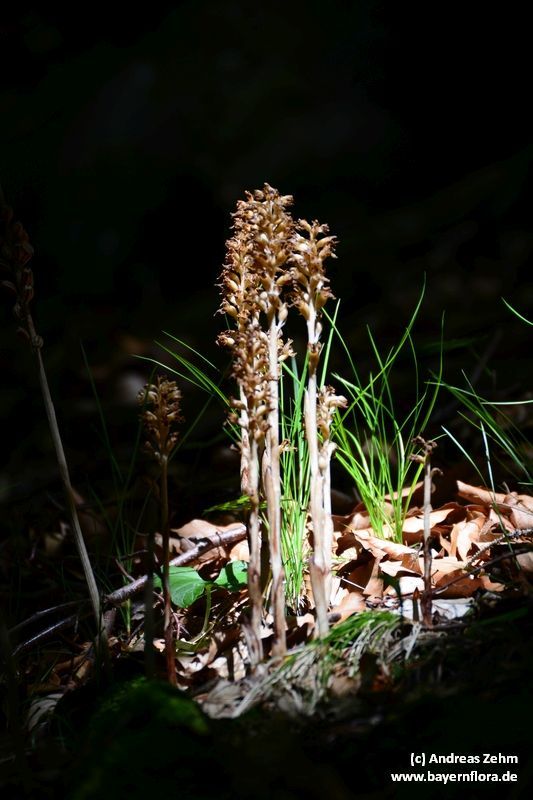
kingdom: Plantae
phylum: Tracheophyta
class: Liliopsida
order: Asparagales
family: Orchidaceae
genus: Neottia
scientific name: Neottia nidus-avis
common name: Bird's-nest orchid
